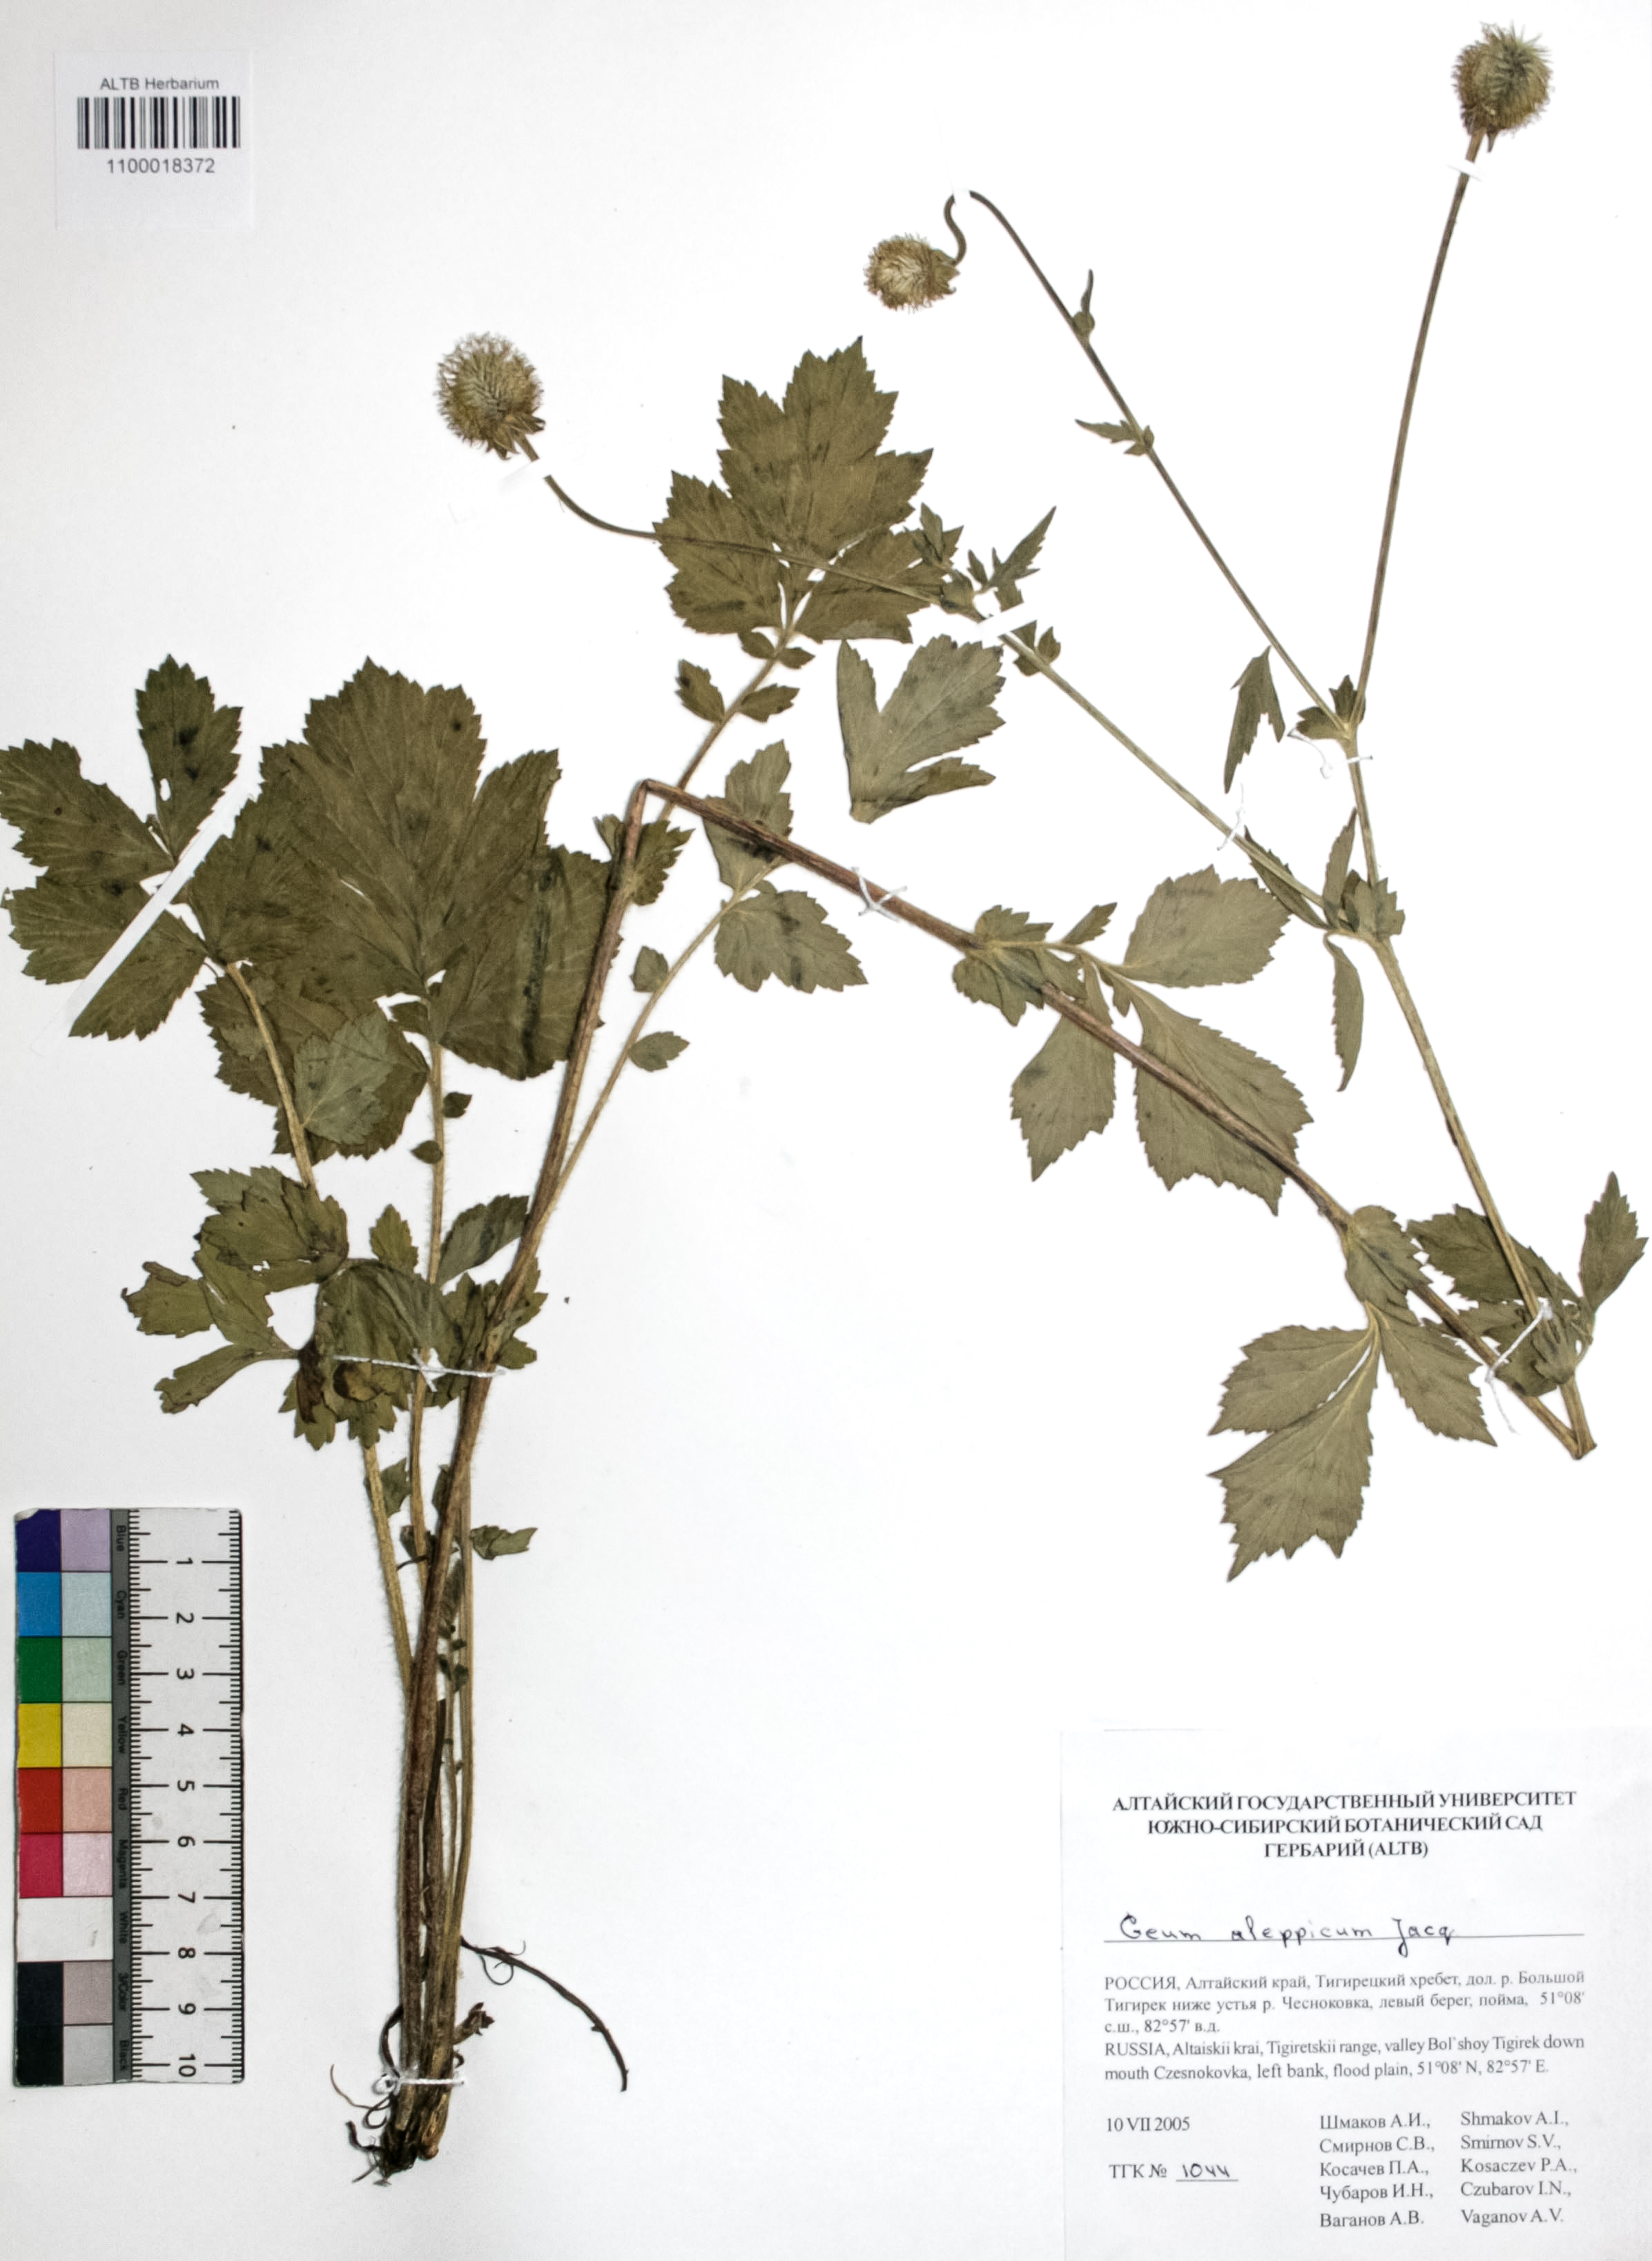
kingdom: Plantae
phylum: Tracheophyta
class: Magnoliopsida
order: Rosales
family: Rosaceae
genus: Geum
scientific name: Geum aleppicum
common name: Yellow avens
